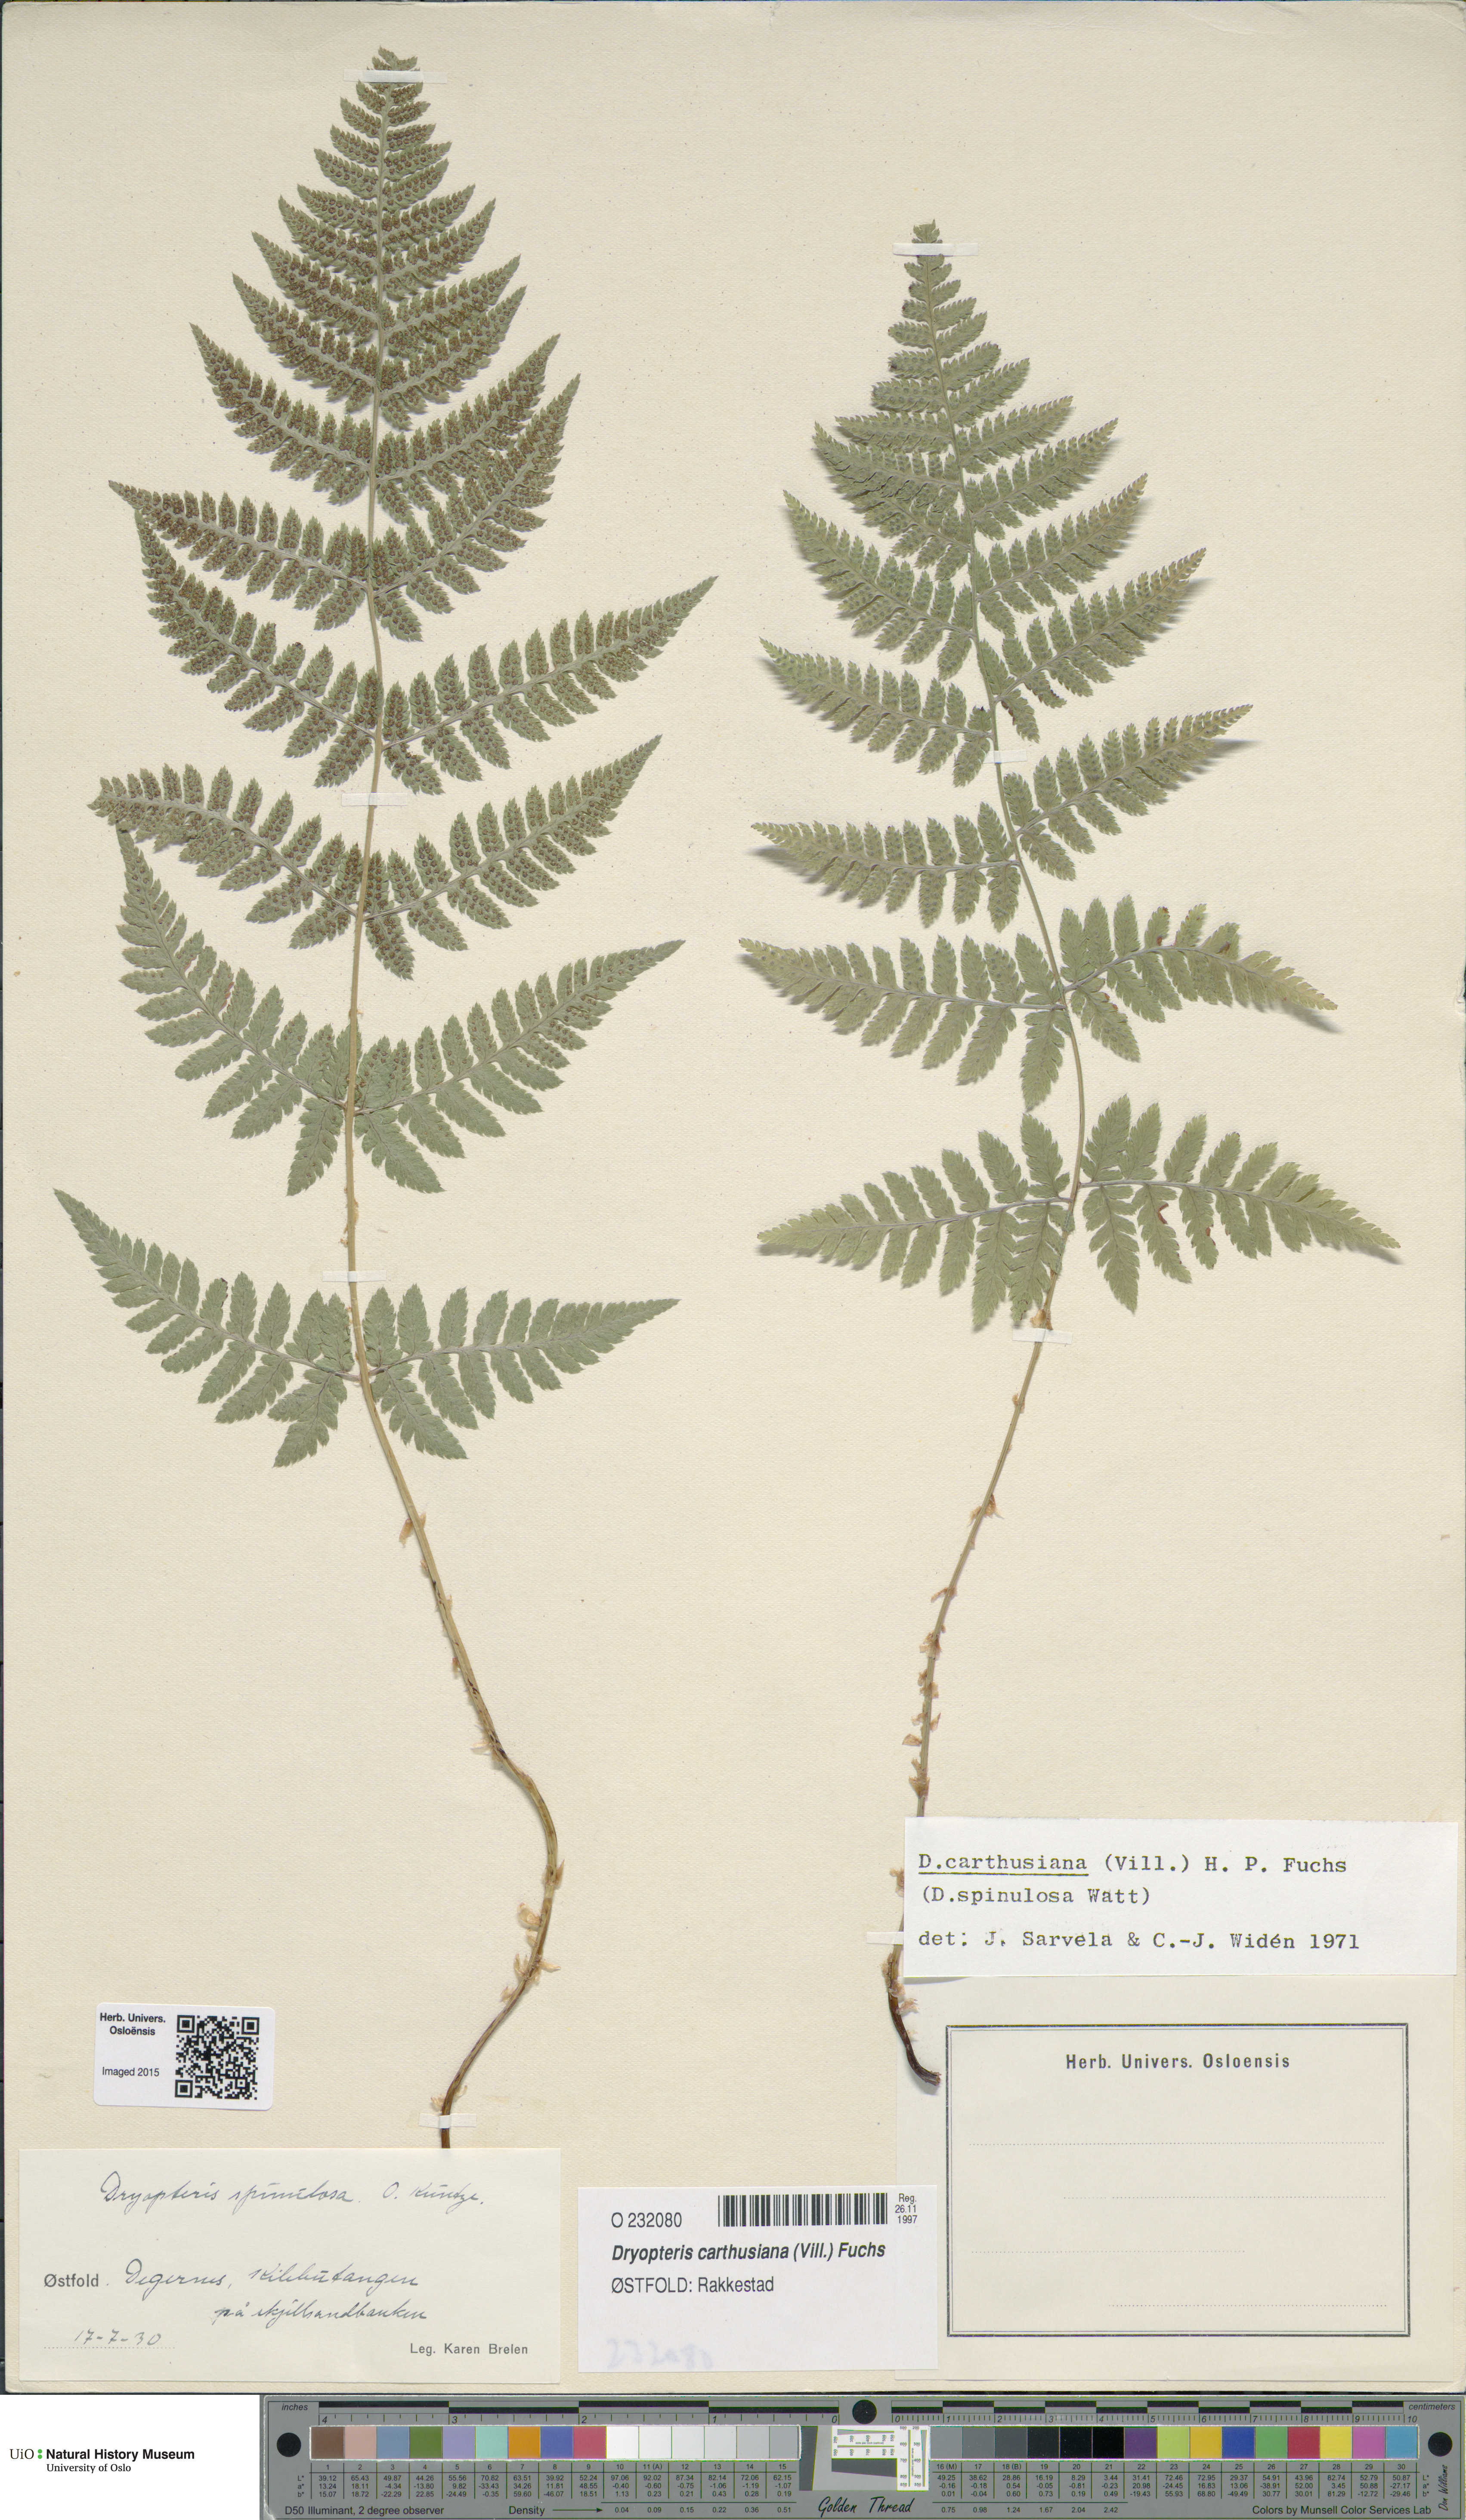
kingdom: Plantae
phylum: Tracheophyta
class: Polypodiopsida
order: Polypodiales
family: Dryopteridaceae
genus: Dryopteris
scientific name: Dryopteris carthusiana
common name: Narrow buckler-fern
